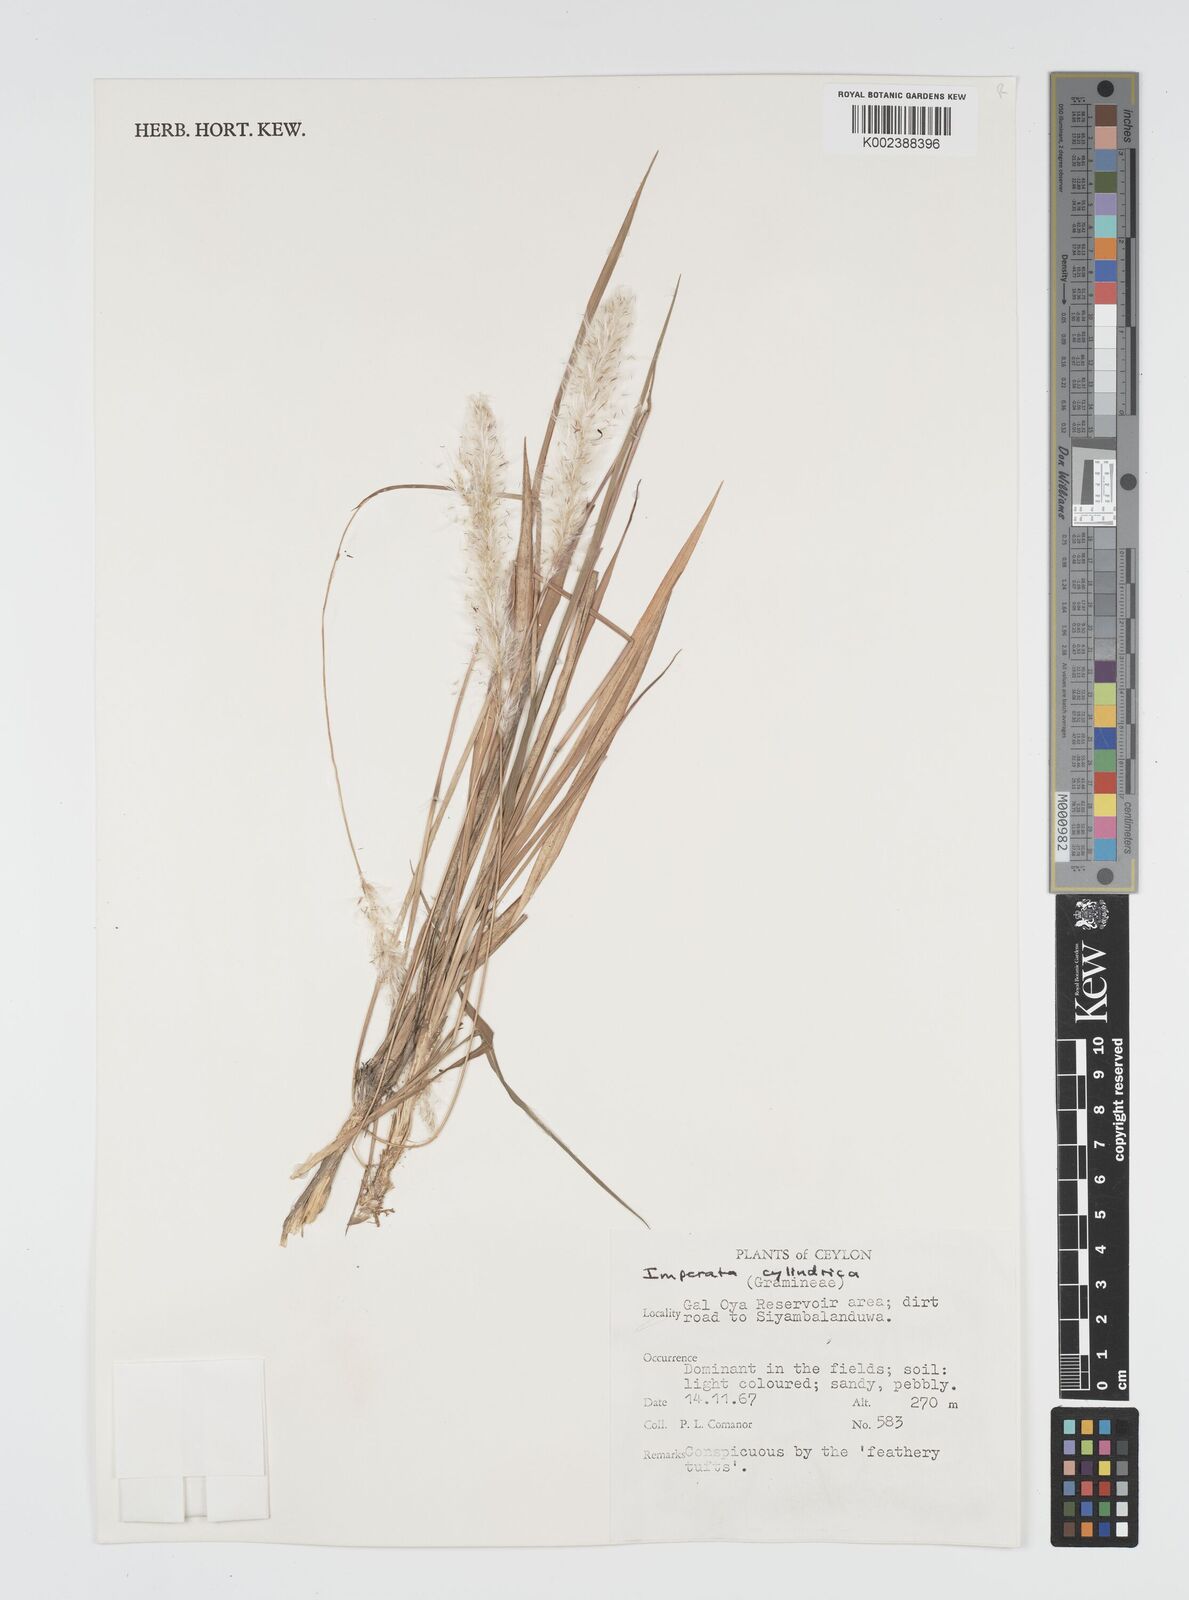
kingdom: Plantae
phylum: Tracheophyta
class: Liliopsida
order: Poales
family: Poaceae
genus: Imperata
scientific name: Imperata cylindrica
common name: Cogongrass
